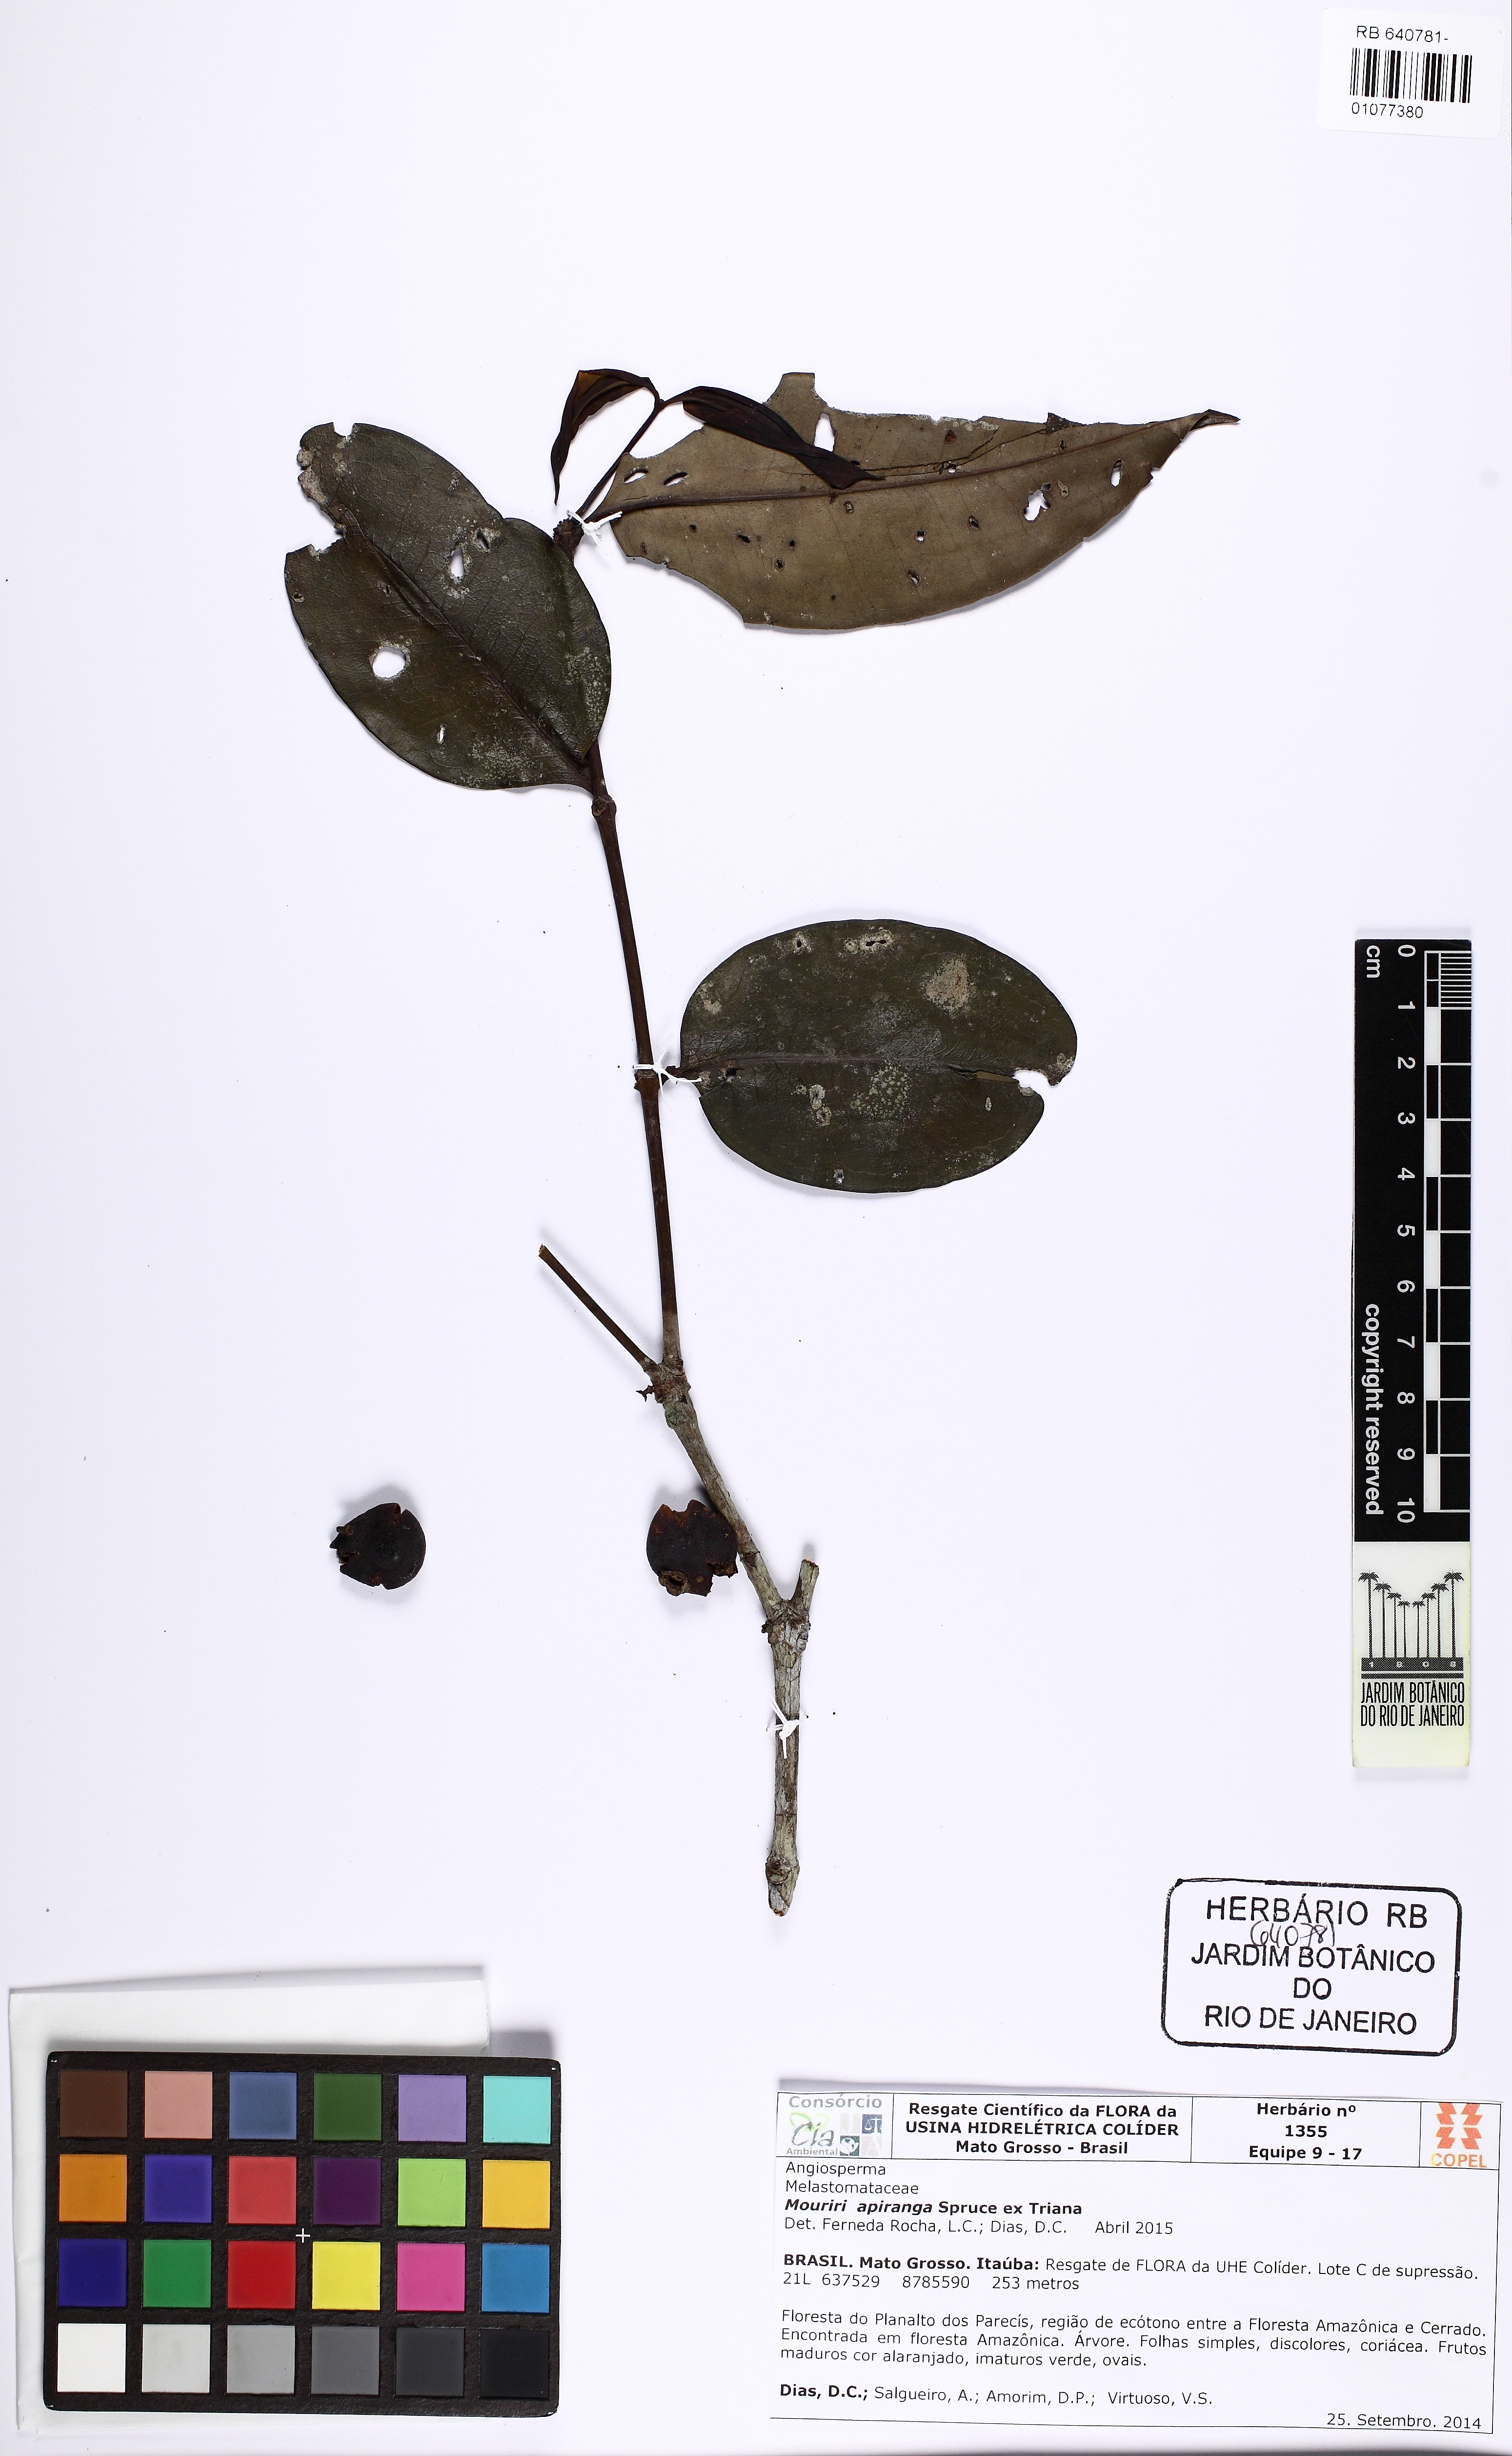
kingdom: Plantae
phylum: Tracheophyta
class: Magnoliopsida
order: Myrtales
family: Melastomataceae
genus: Mouriri
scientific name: Mouriri nigra
